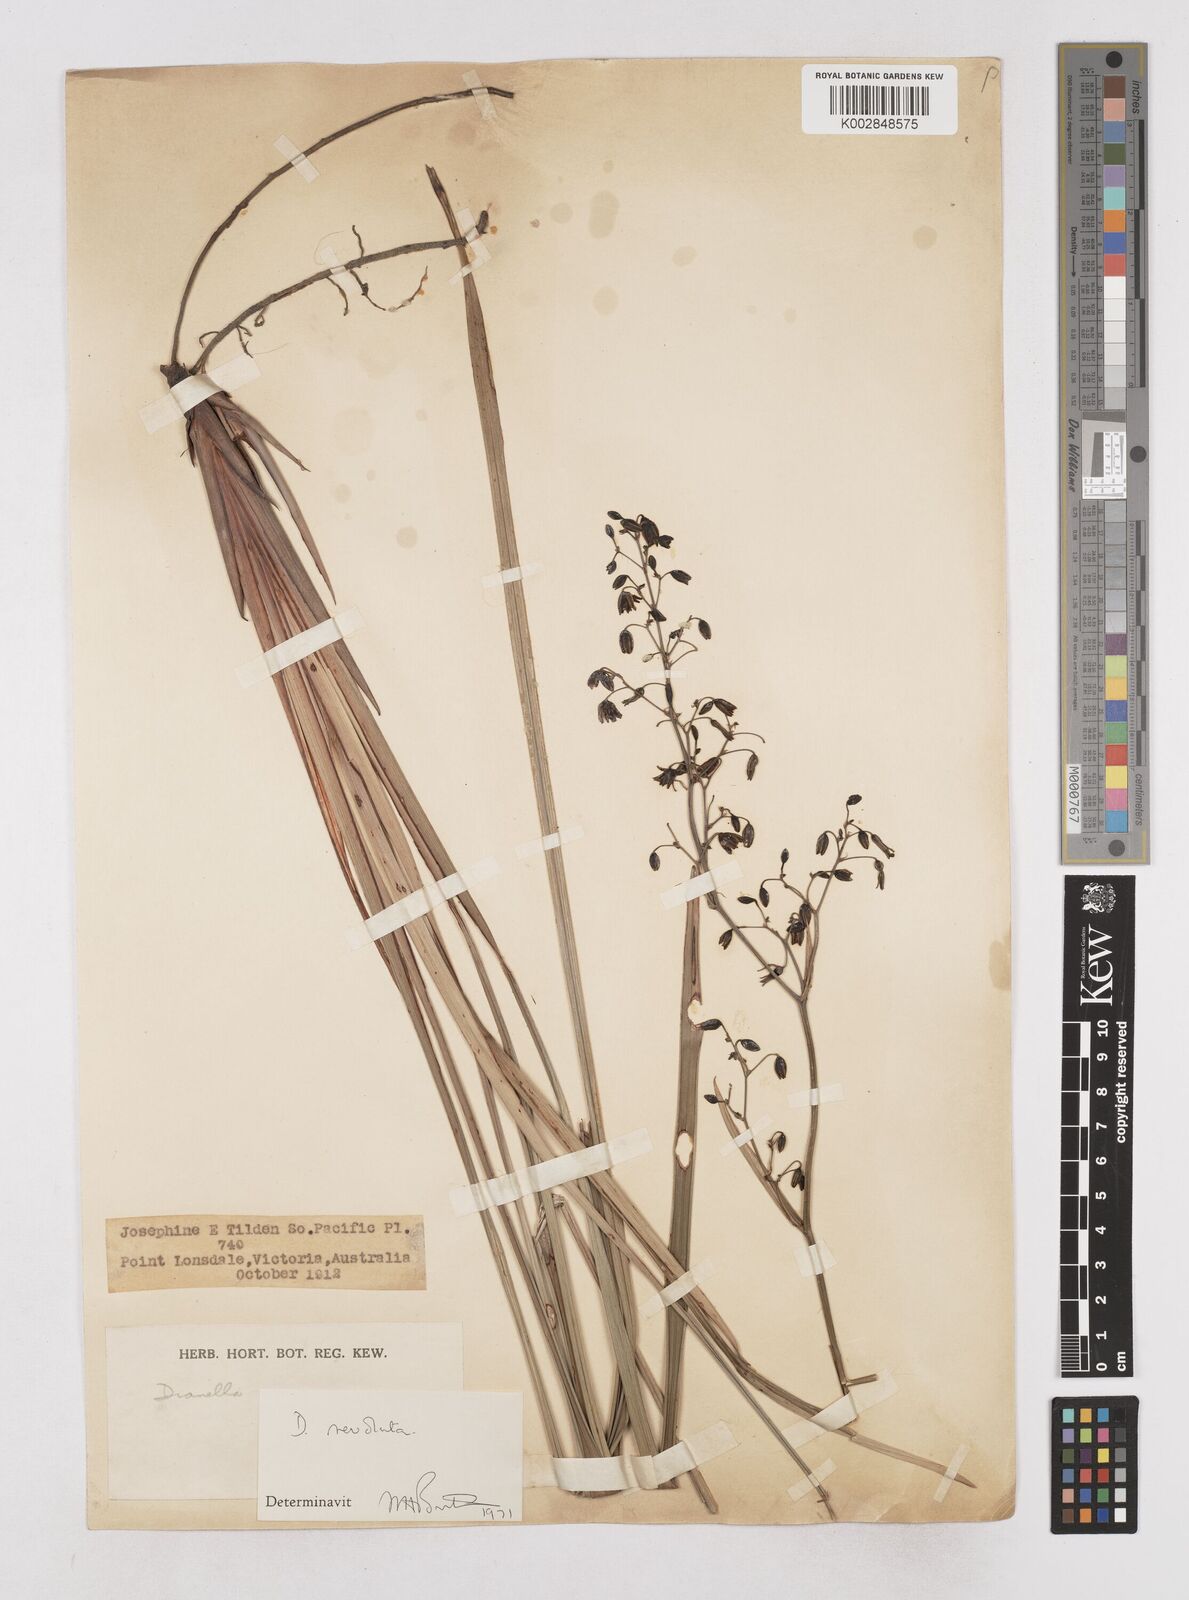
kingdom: Plantae
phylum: Tracheophyta
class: Liliopsida
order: Asparagales
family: Asphodelaceae
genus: Dianella
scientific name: Dianella revoluta
